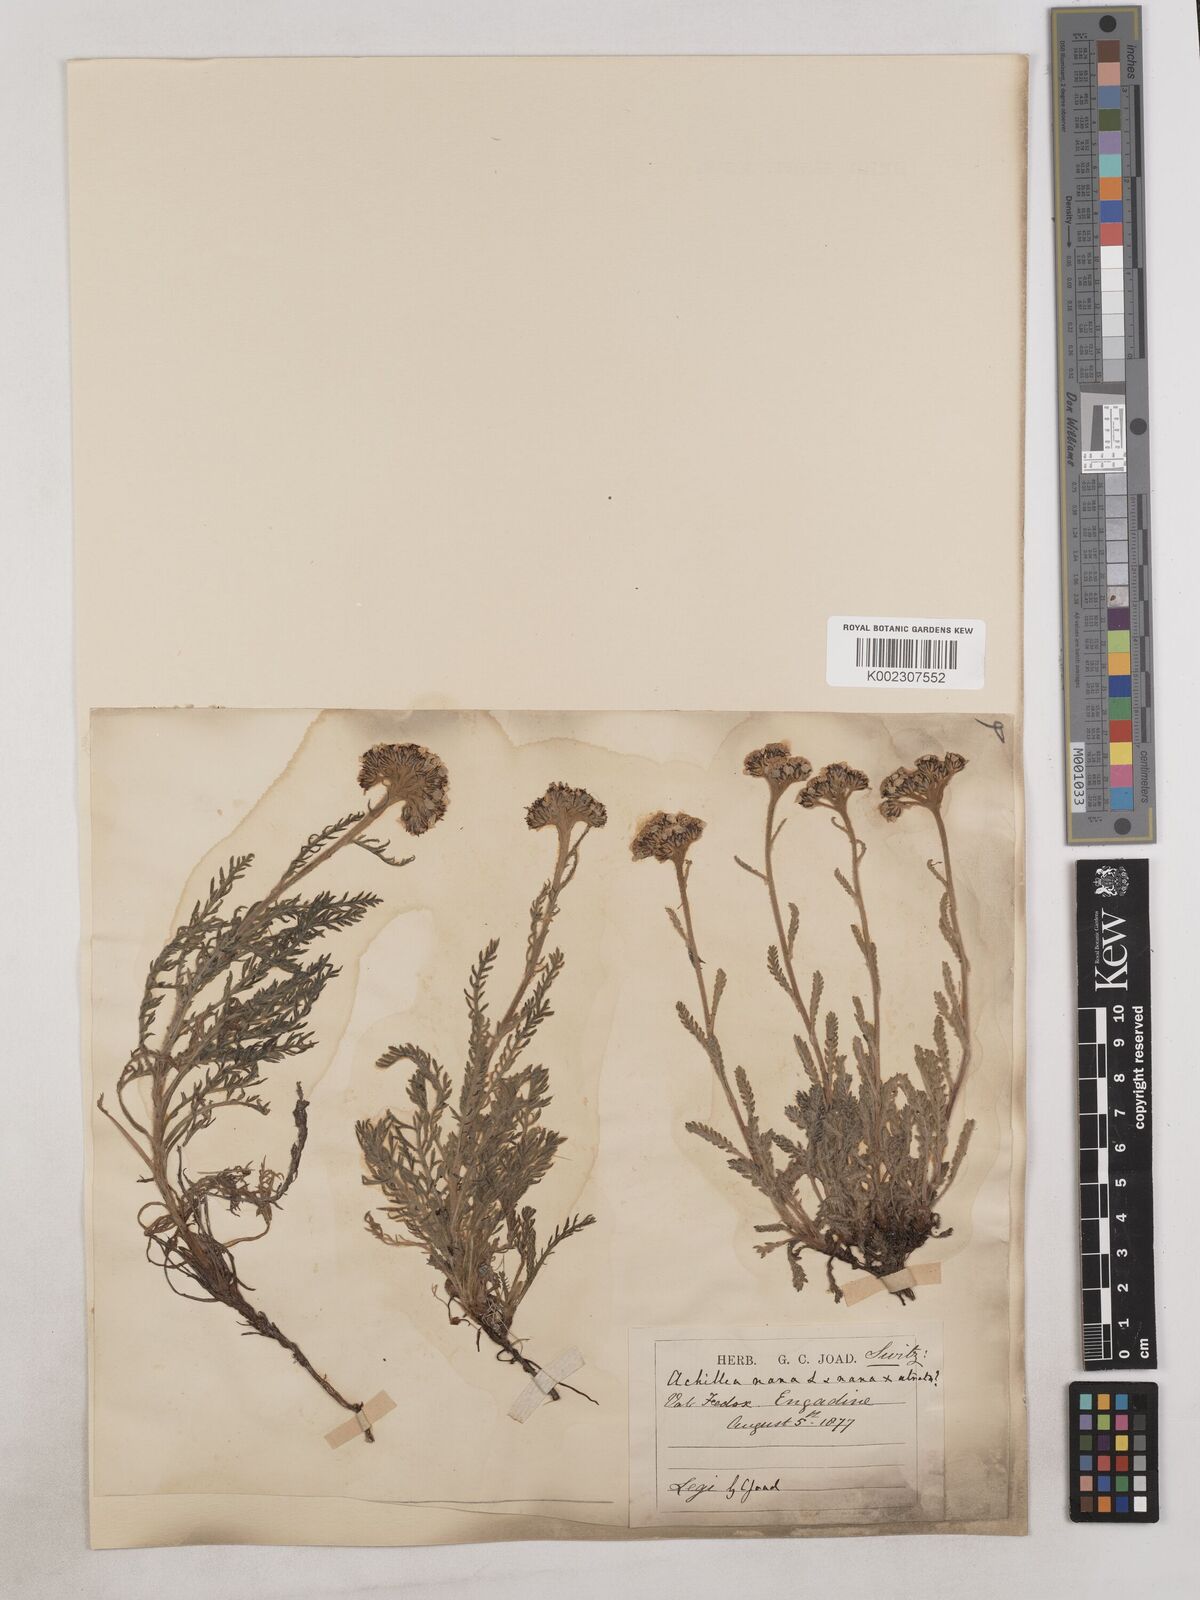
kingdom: Plantae
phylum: Tracheophyta
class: Magnoliopsida
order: Asterales
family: Asteraceae
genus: Achillea
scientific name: Achillea erba-rotta
